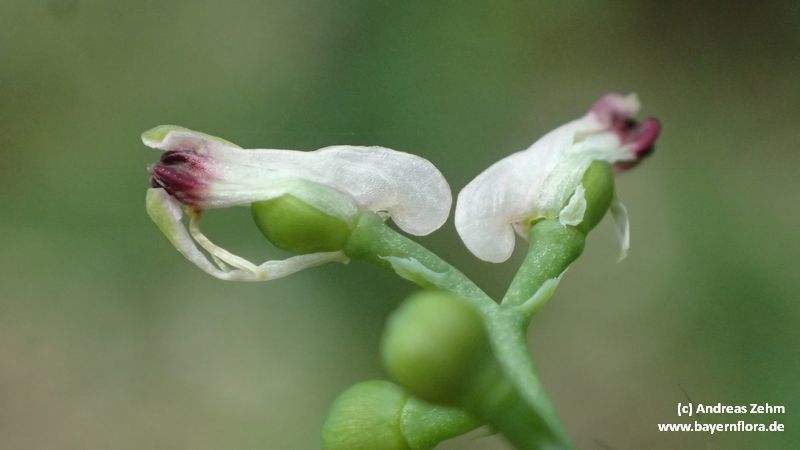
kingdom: Plantae
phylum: Tracheophyta
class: Magnoliopsida
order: Ranunculales
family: Papaveraceae
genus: Fumaria
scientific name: Fumaria capreolata
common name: White ramping-fumitory
